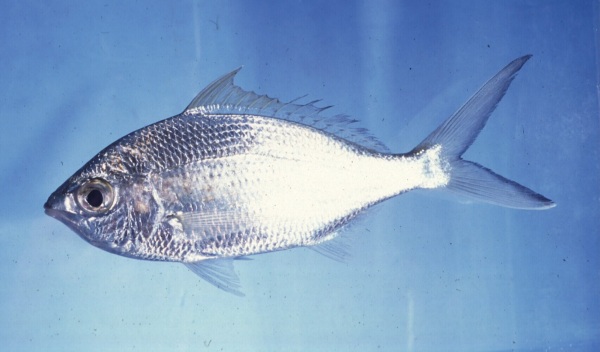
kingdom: Animalia
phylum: Chordata
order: Perciformes
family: Gerreidae
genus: Gerres
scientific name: Gerres longirostris
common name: Strongspine silver-biddy
